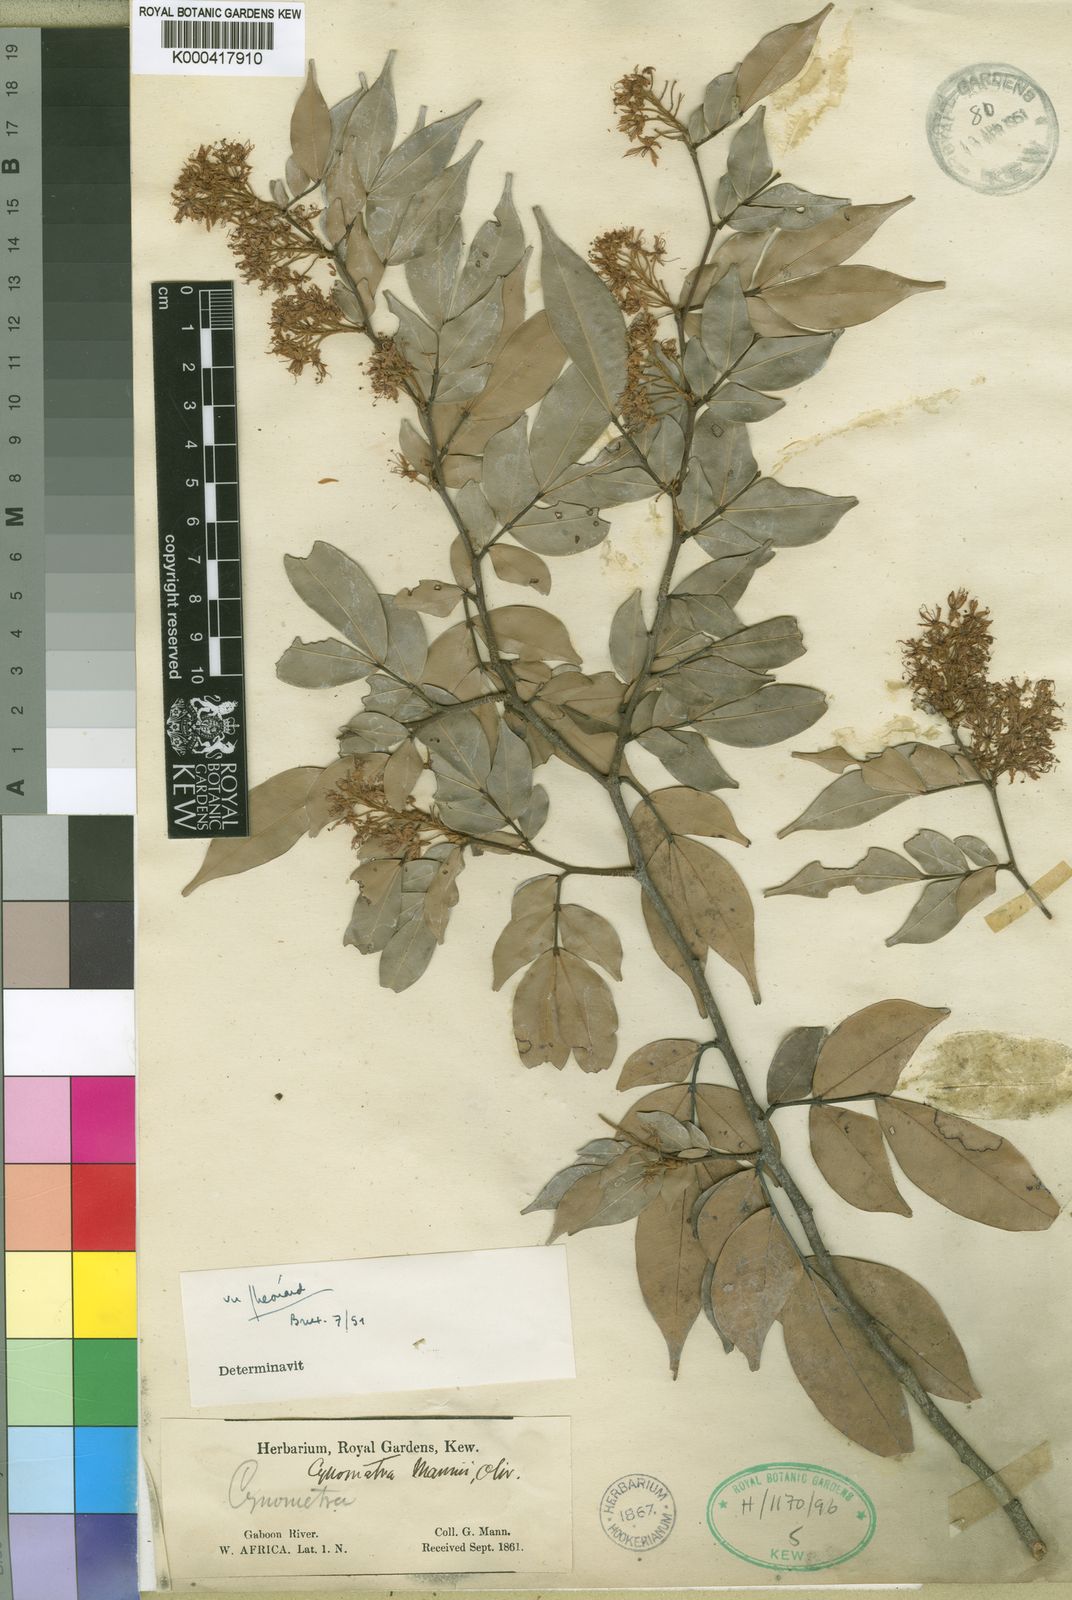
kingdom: Plantae
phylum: Tracheophyta
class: Magnoliopsida
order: Fabales
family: Fabaceae
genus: Cynometra
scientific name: Cynometra mannii
